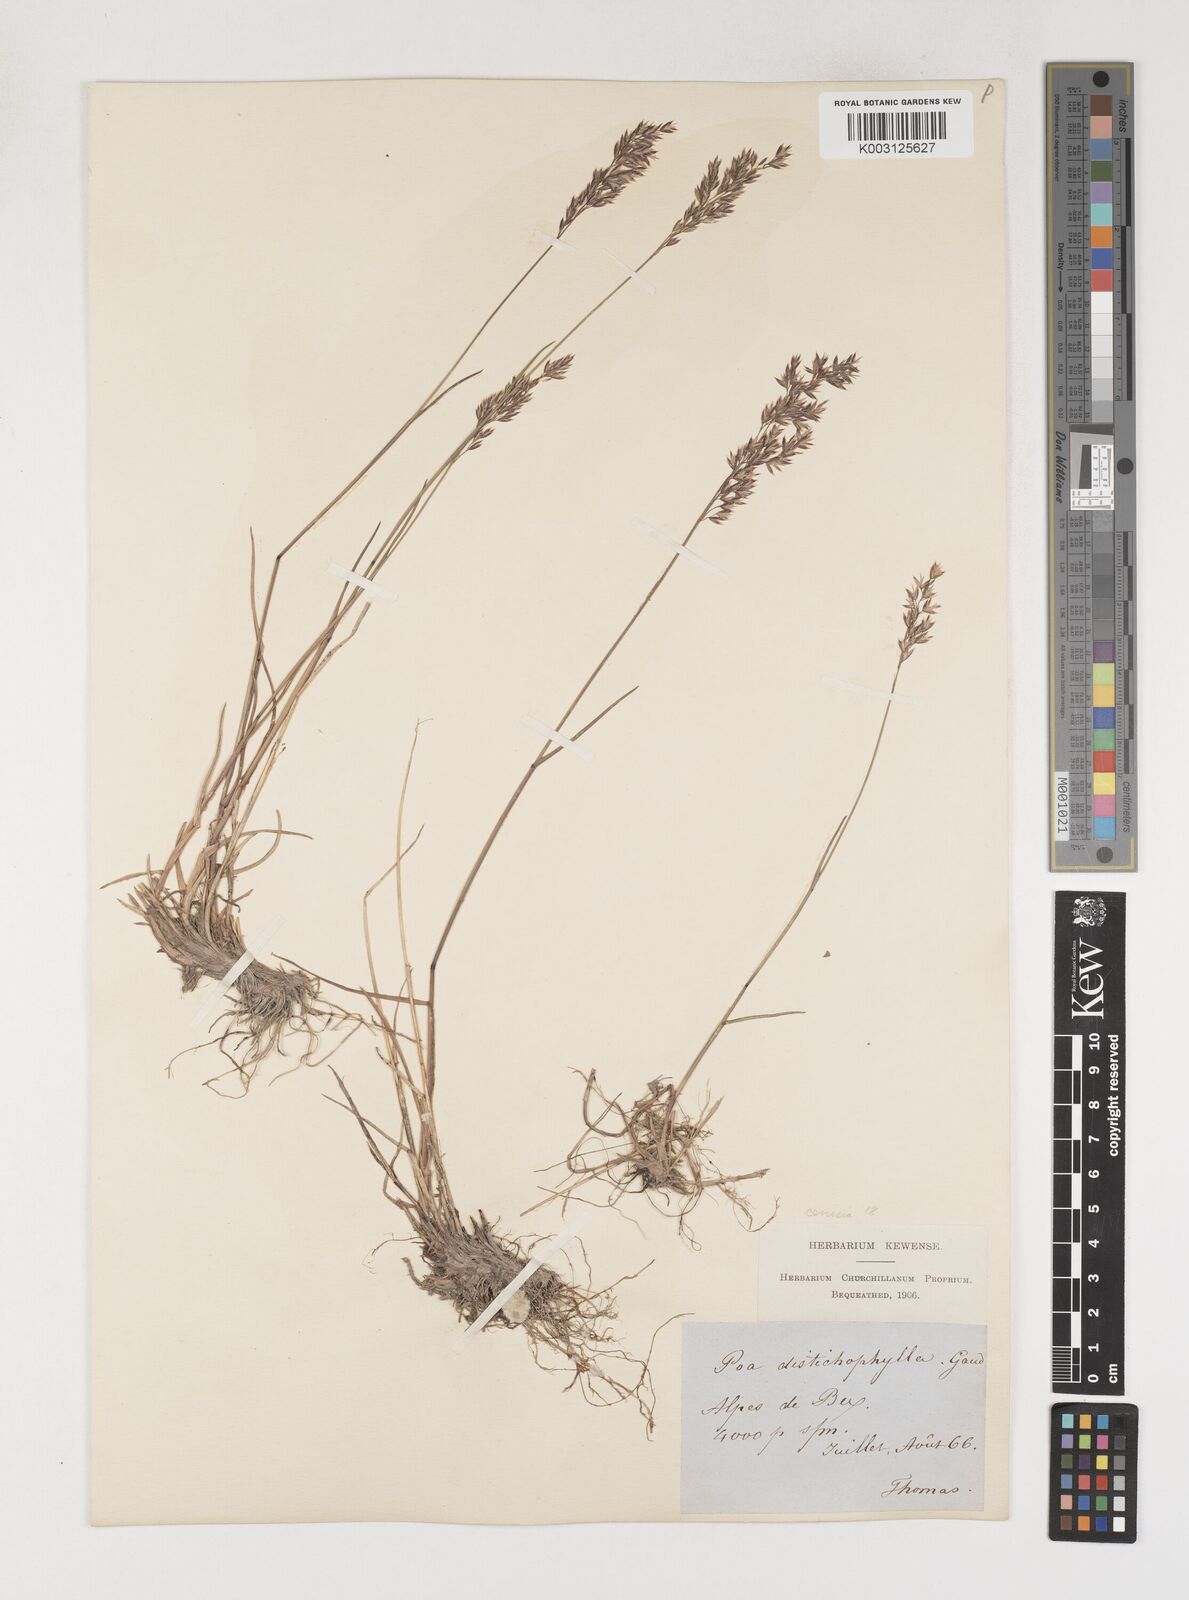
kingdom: Plantae
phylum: Tracheophyta
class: Liliopsida
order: Poales
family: Poaceae
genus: Poa
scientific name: Poa cenisia
